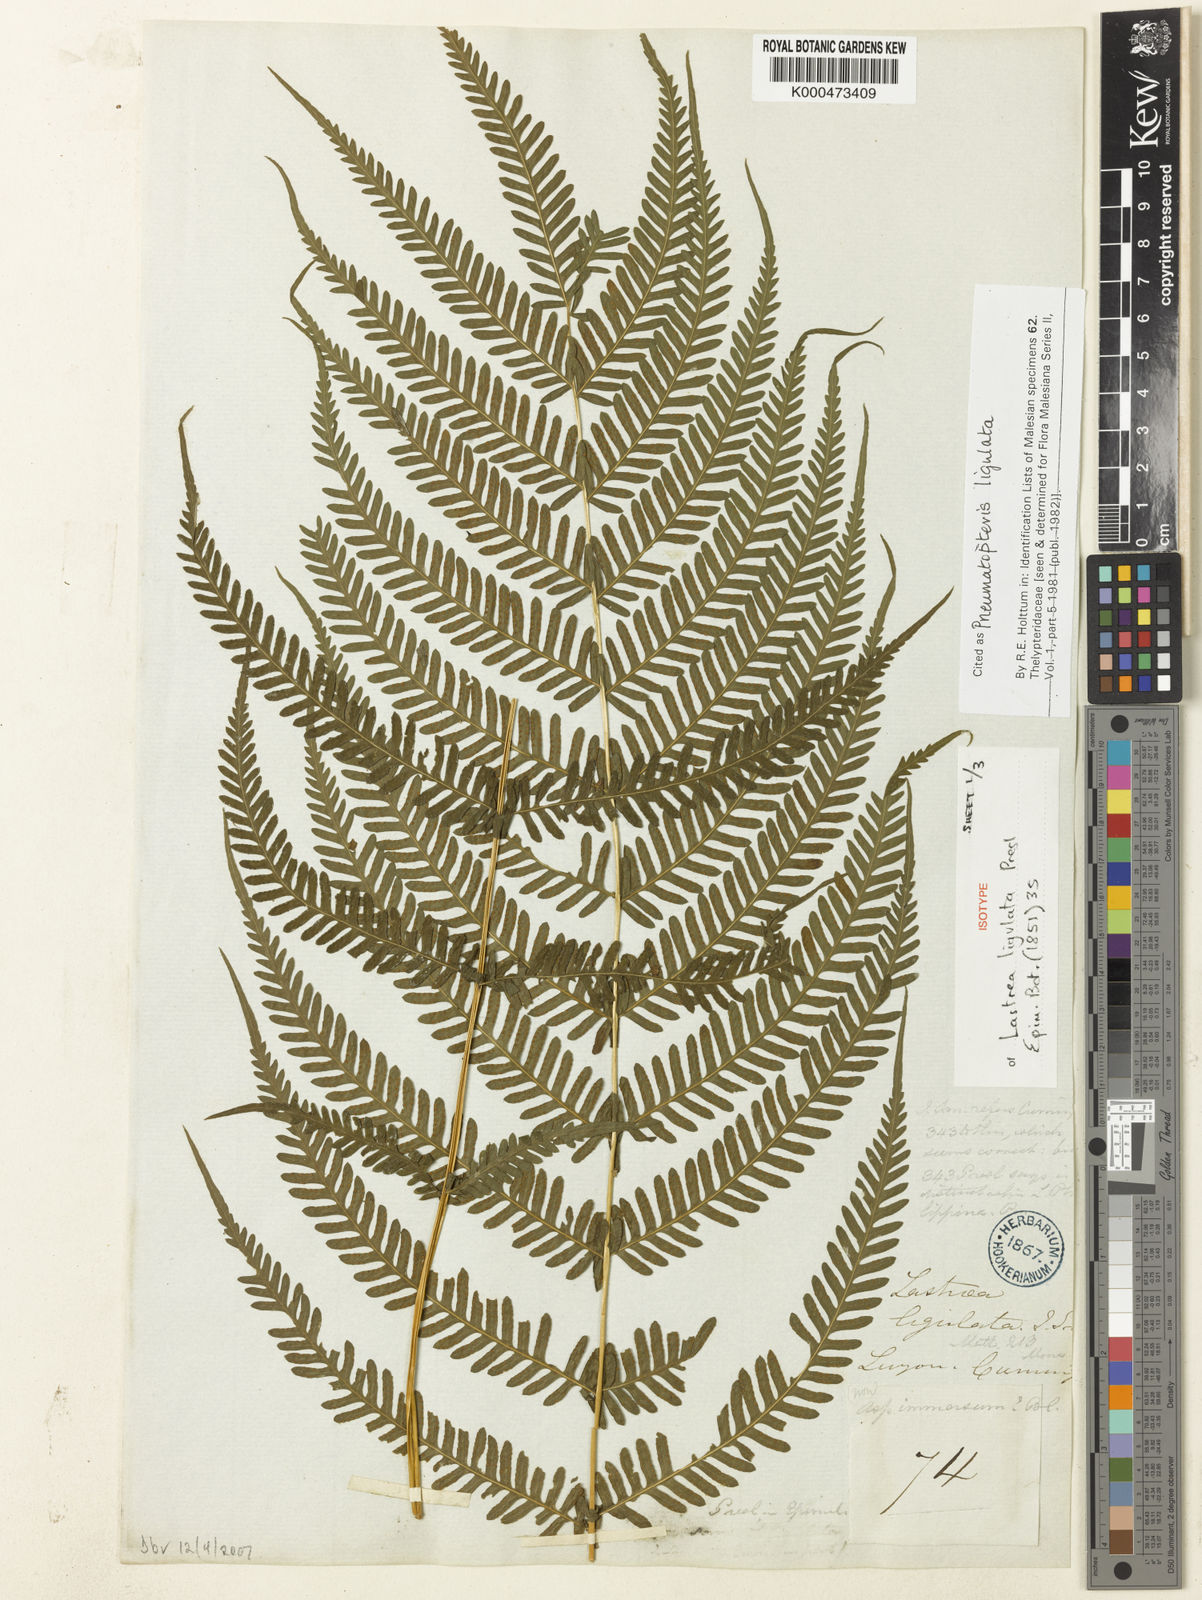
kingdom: Plantae
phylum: Tracheophyta
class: Polypodiopsida
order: Polypodiales
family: Thelypteridaceae
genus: Plesioneuron
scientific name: Plesioneuron ligulatum
